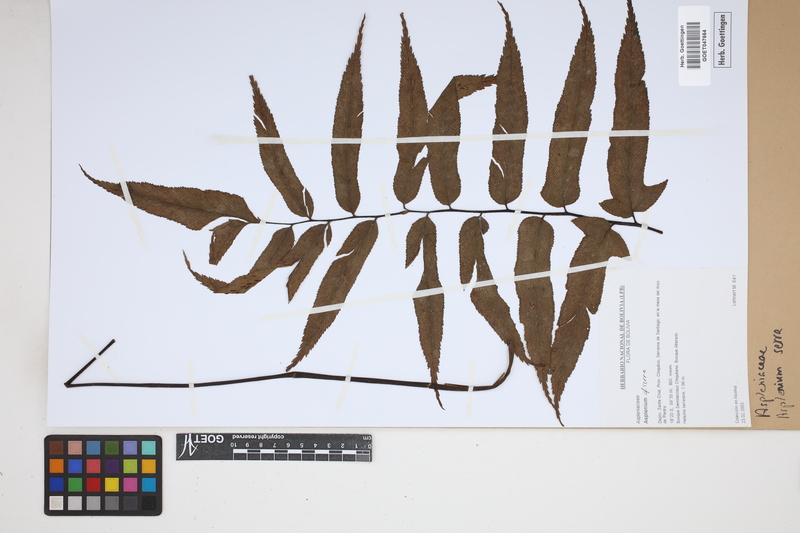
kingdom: Plantae
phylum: Tracheophyta
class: Polypodiopsida
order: Polypodiales
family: Aspleniaceae
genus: Asplenium
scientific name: Asplenium serra
